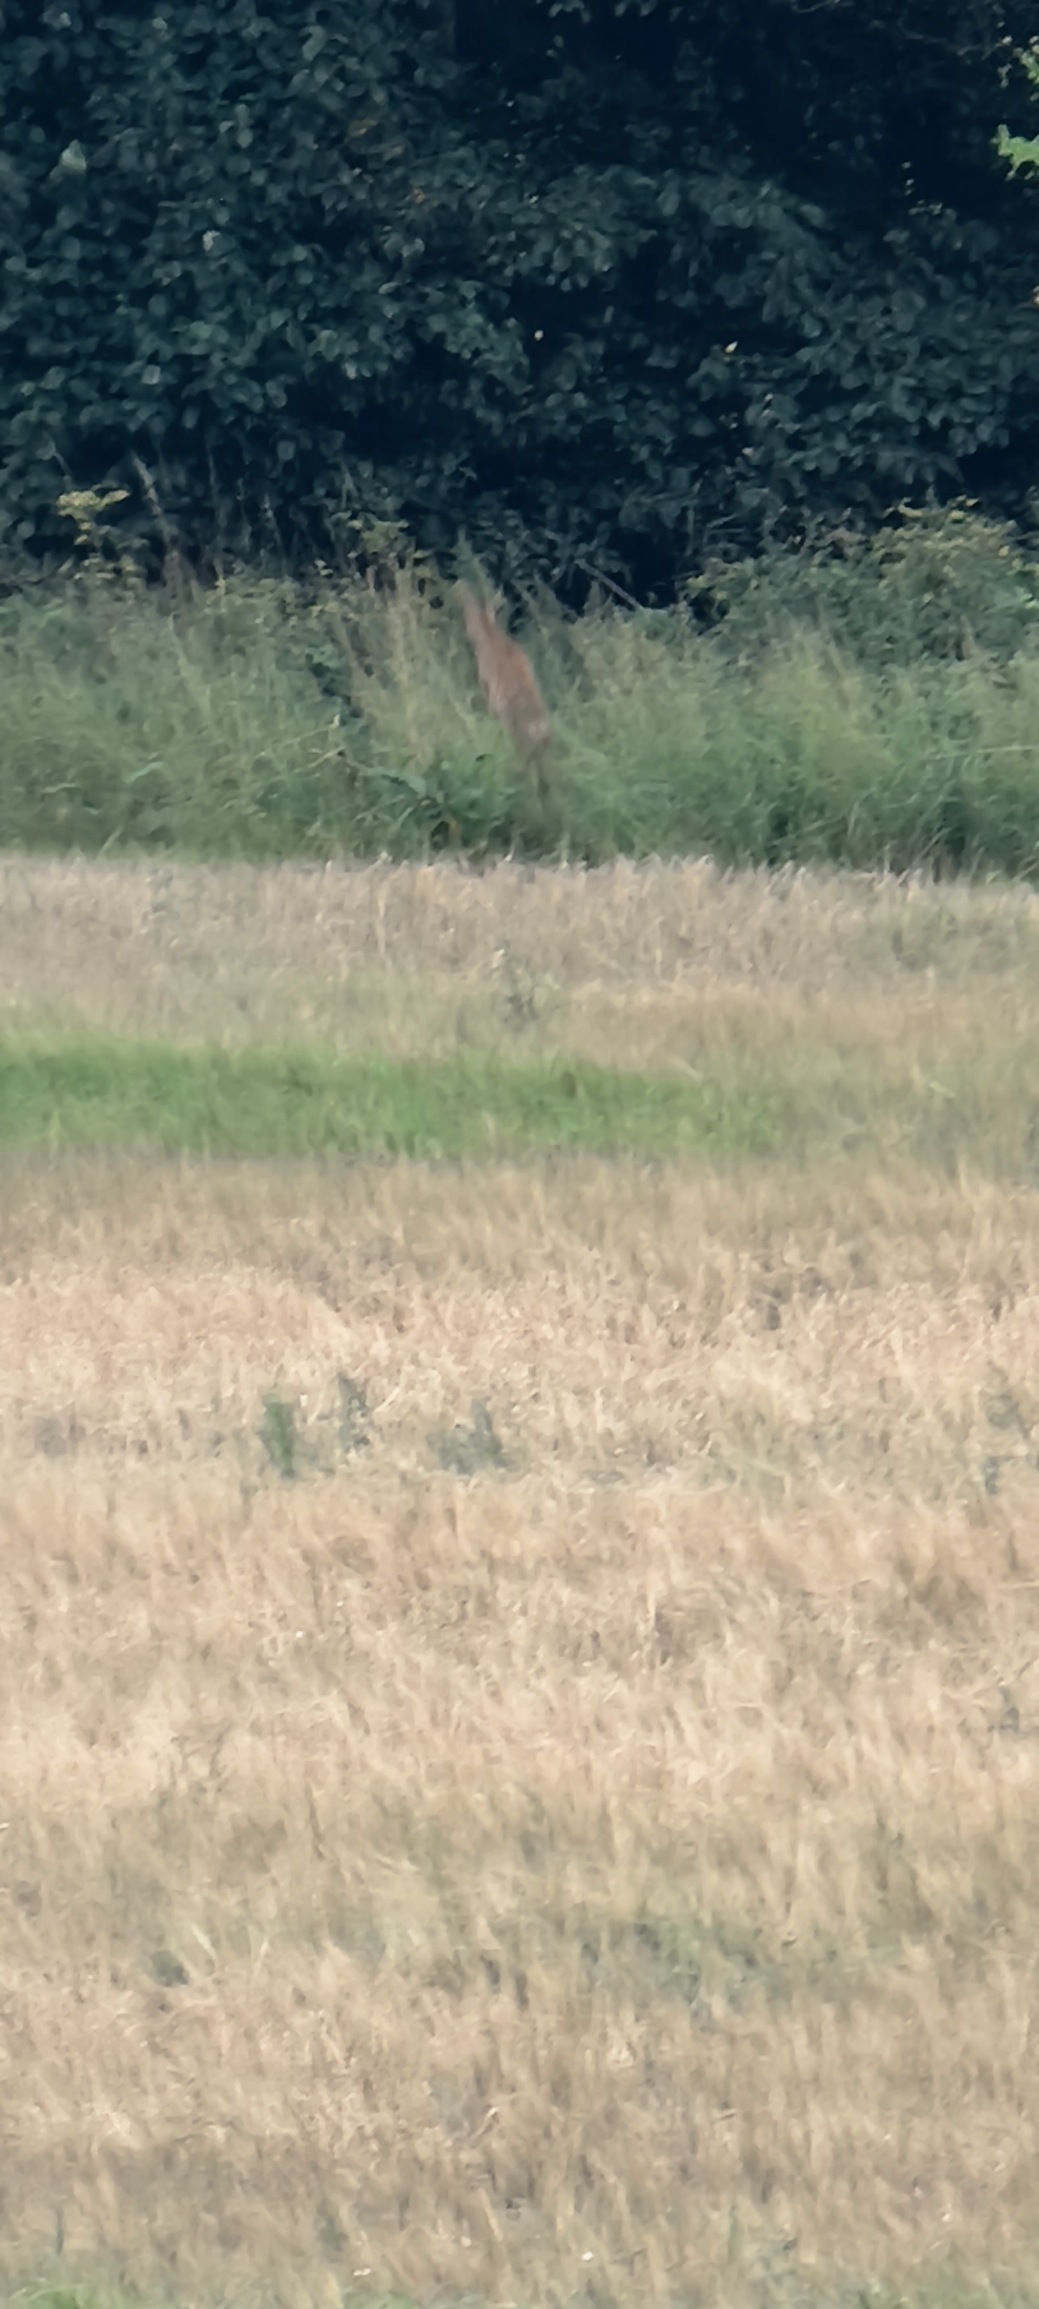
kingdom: Animalia
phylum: Chordata
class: Mammalia
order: Artiodactyla
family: Cervidae
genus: Capreolus
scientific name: Capreolus capreolus
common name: Rådyr
